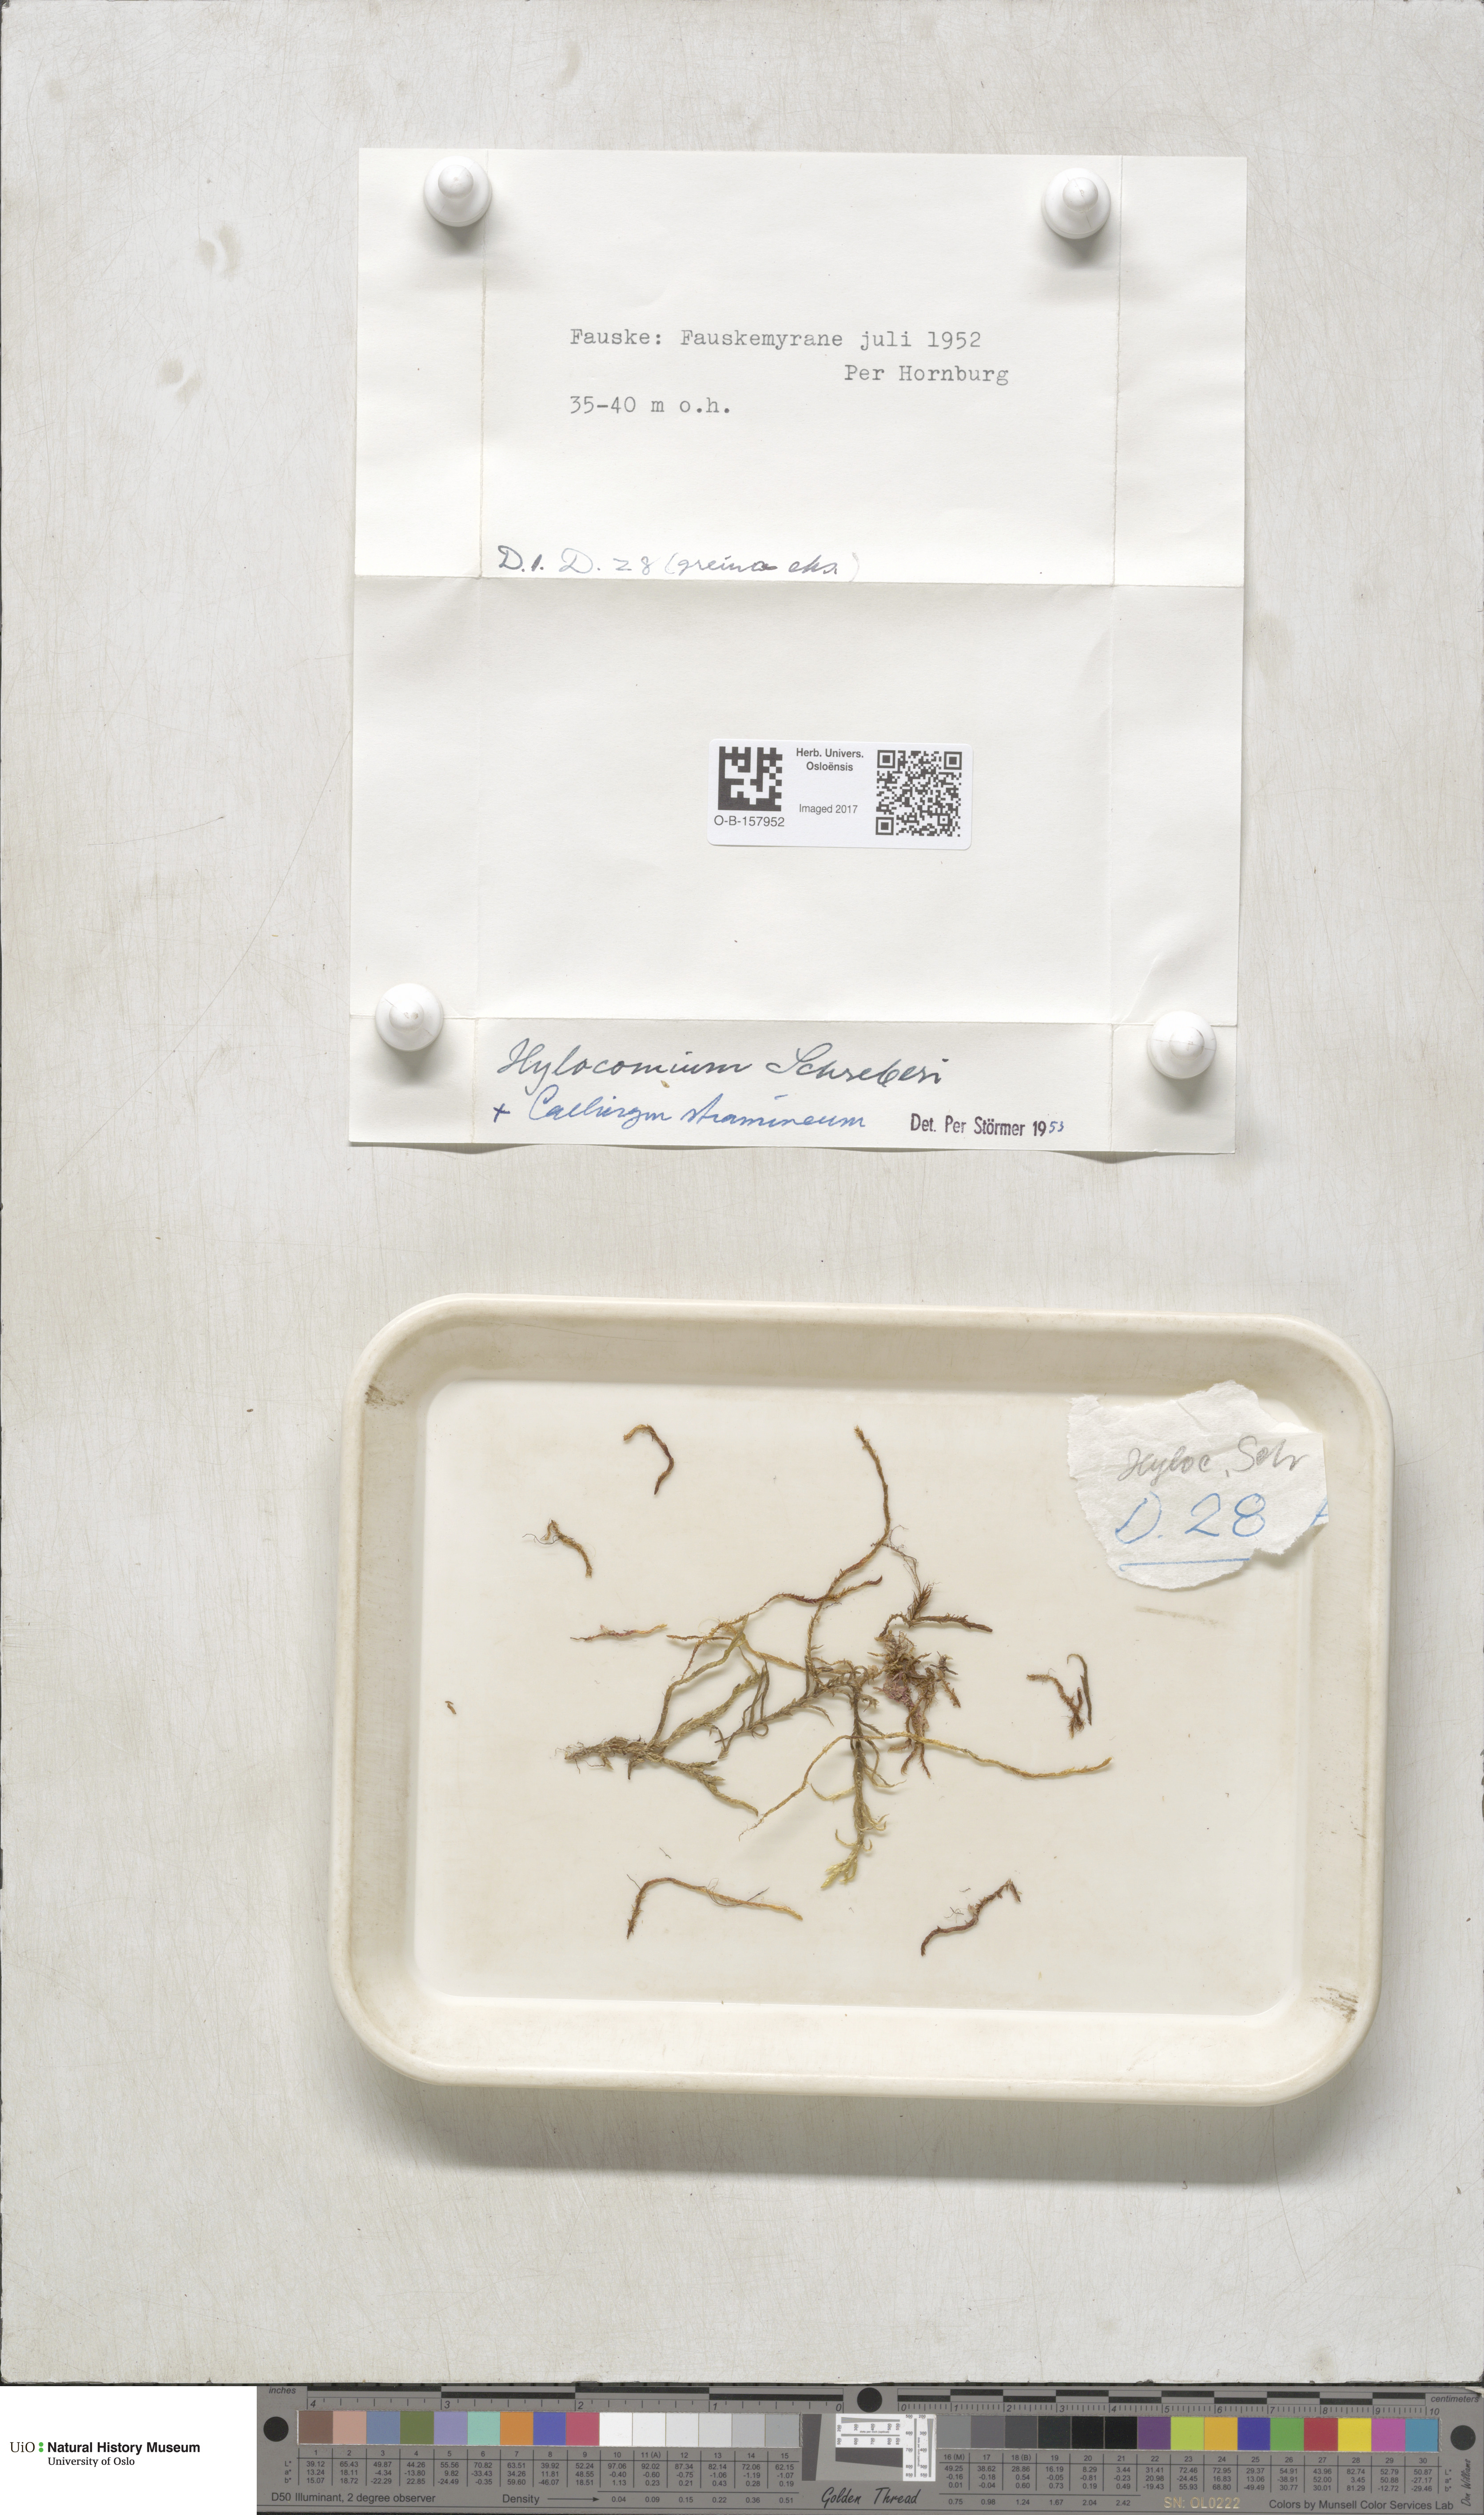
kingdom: Plantae
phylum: Bryophyta
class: Bryopsida
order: Hypnales
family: Hylocomiaceae
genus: Pleurozium
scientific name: Pleurozium schreberi
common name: Red-stemmed feather moss
